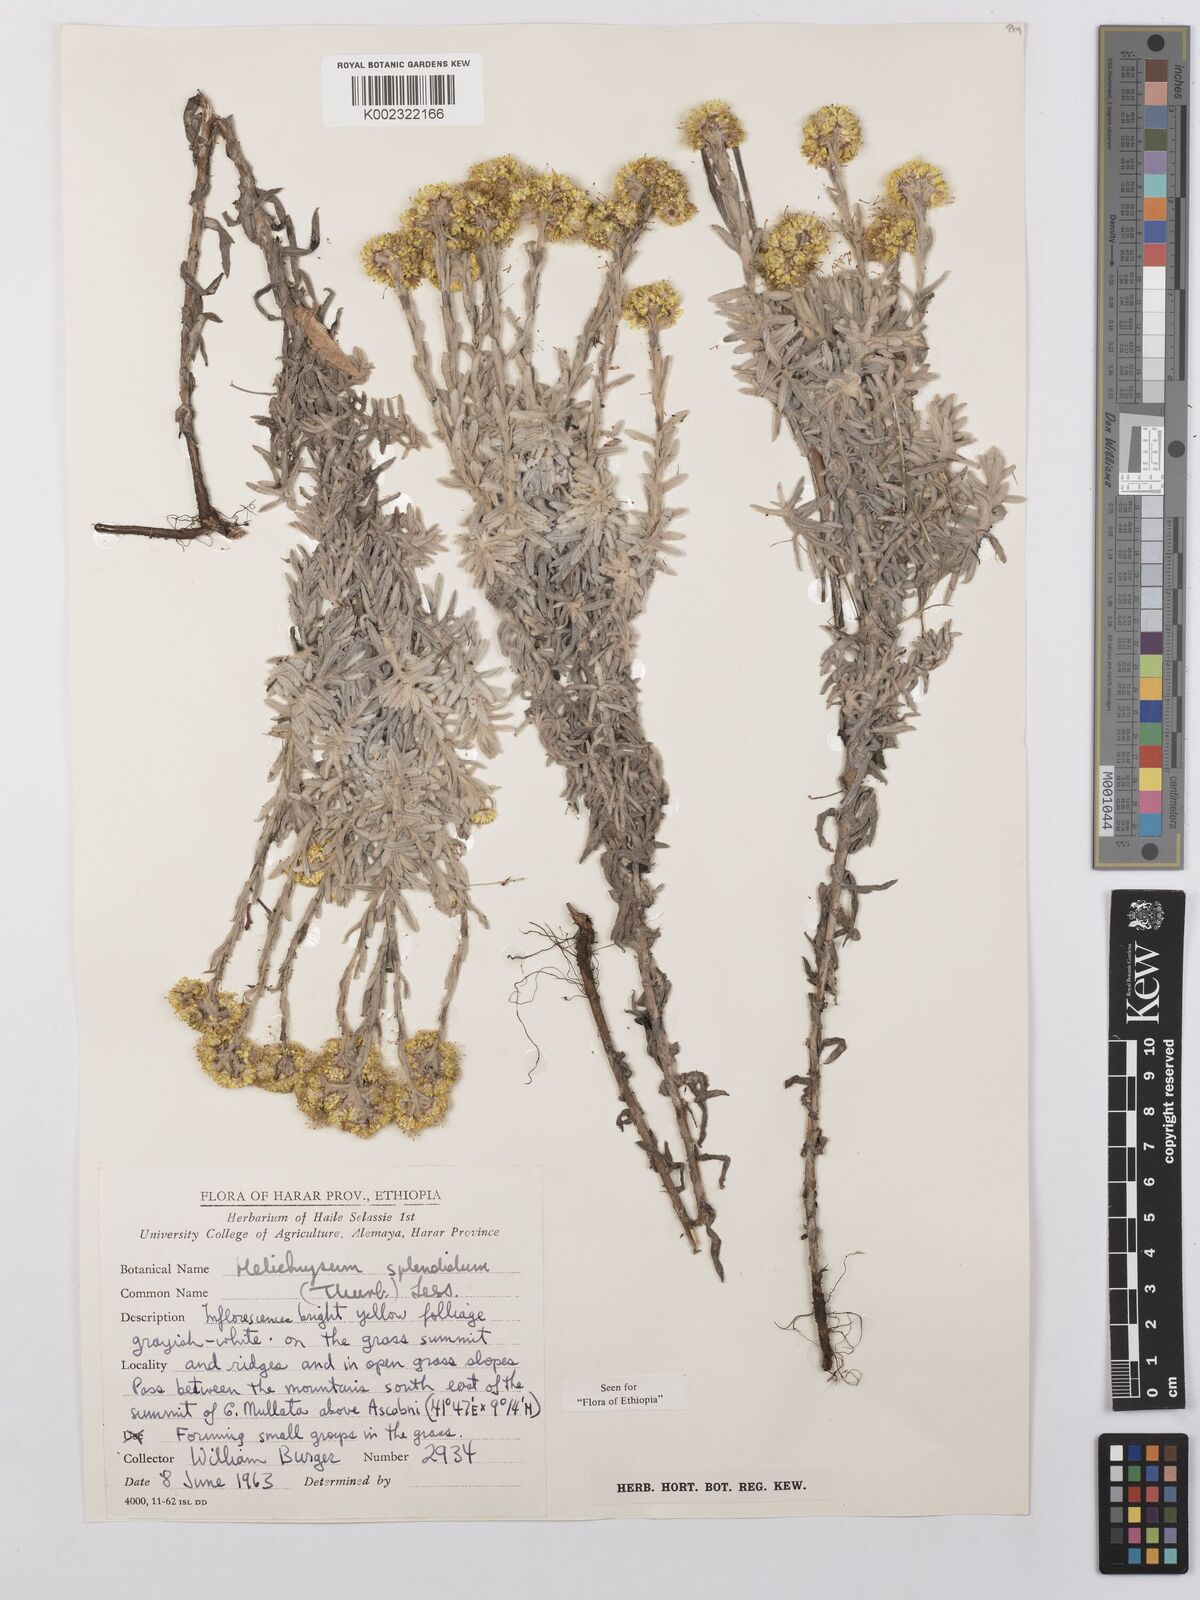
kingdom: Plantae
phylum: Tracheophyta
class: Magnoliopsida
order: Asterales
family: Asteraceae
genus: Helichrysum
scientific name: Helichrysum splendidum
